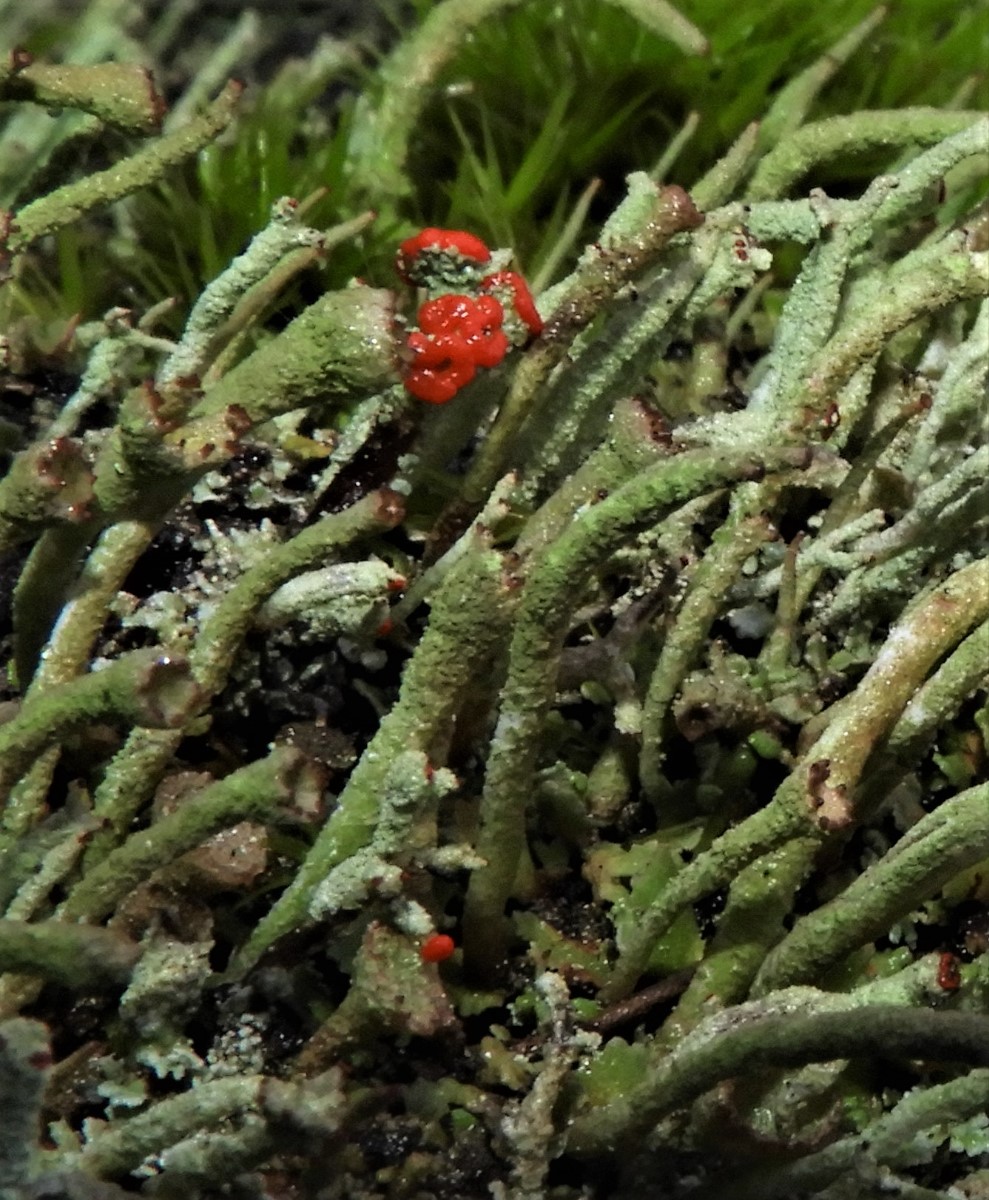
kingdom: Fungi
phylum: Ascomycota
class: Lecanoromycetes
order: Lecanorales
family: Cladoniaceae
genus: Cladonia
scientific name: Cladonia floerkeana
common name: lakrød bægerlav
